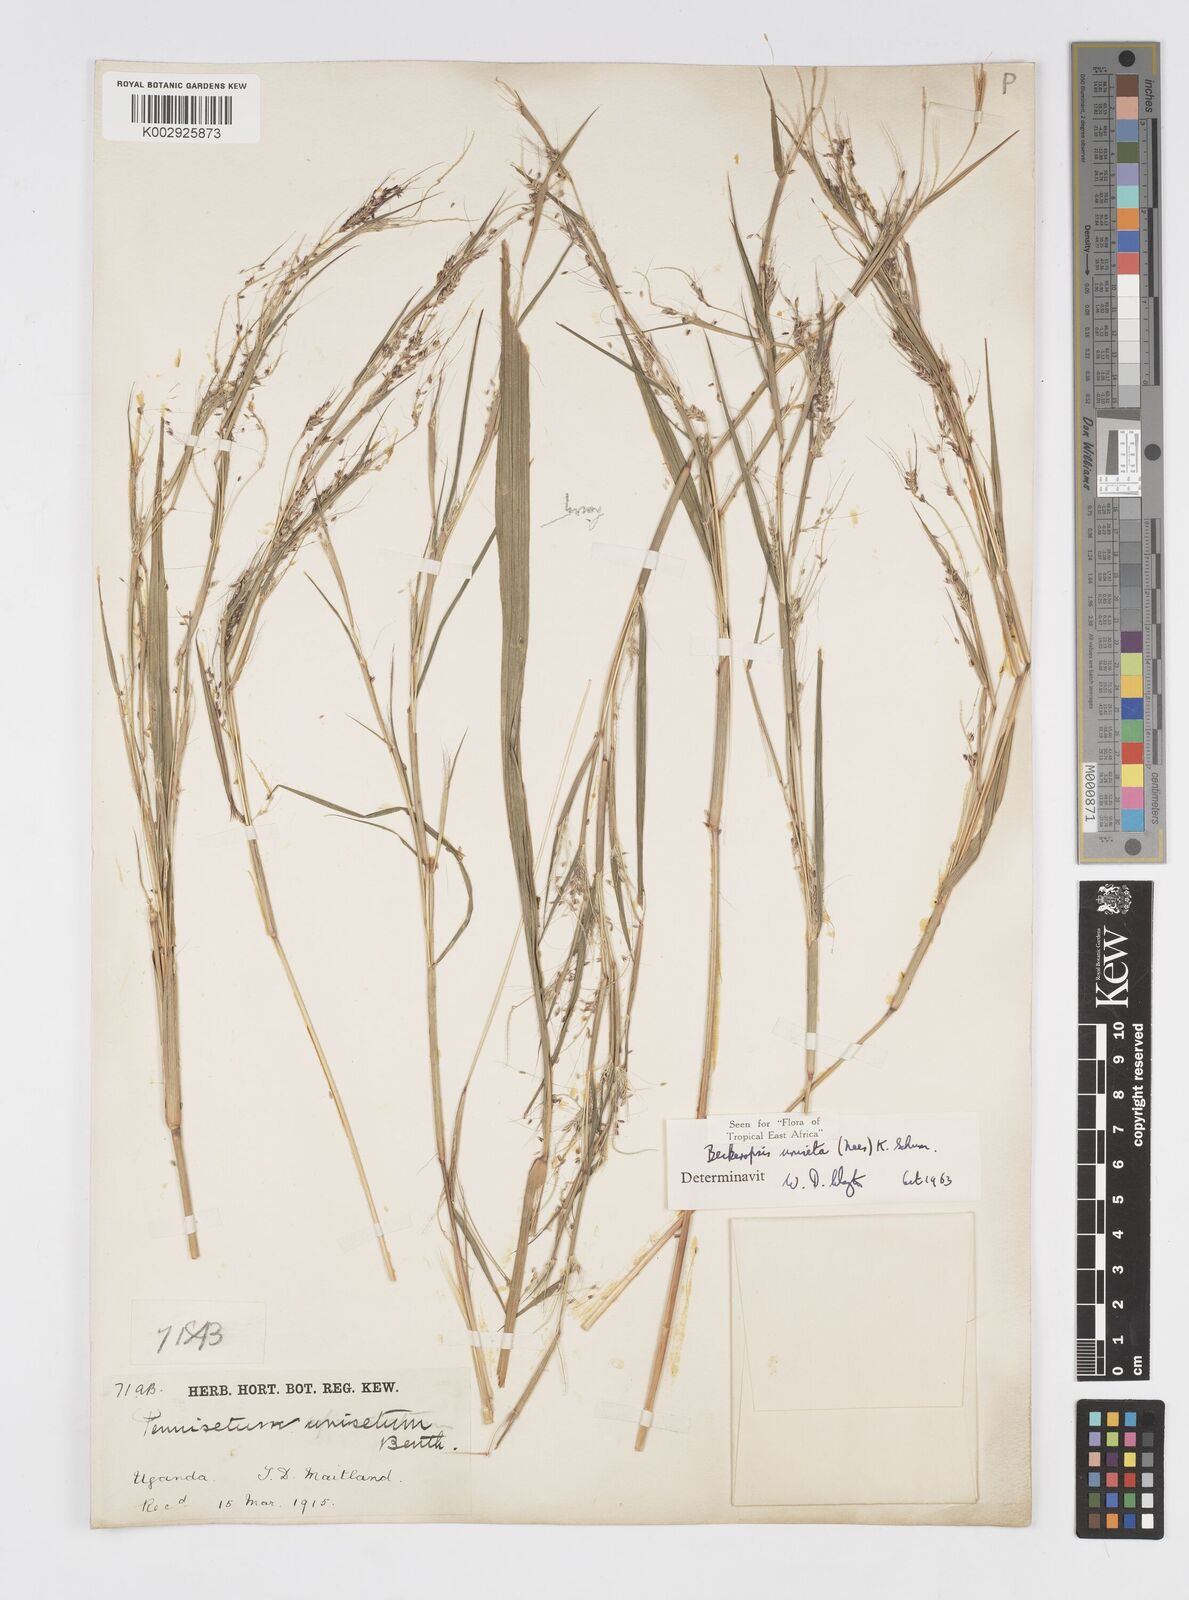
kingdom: Plantae
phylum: Tracheophyta
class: Liliopsida
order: Poales
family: Poaceae
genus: Cenchrus
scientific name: Cenchrus unisetus
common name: Natal grass
